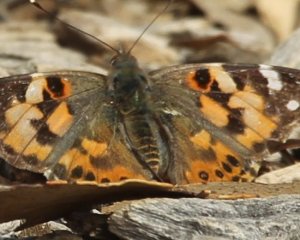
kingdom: Animalia
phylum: Arthropoda
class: Insecta
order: Lepidoptera
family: Nymphalidae
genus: Vanessa
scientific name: Vanessa cardui
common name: Painted Lady
